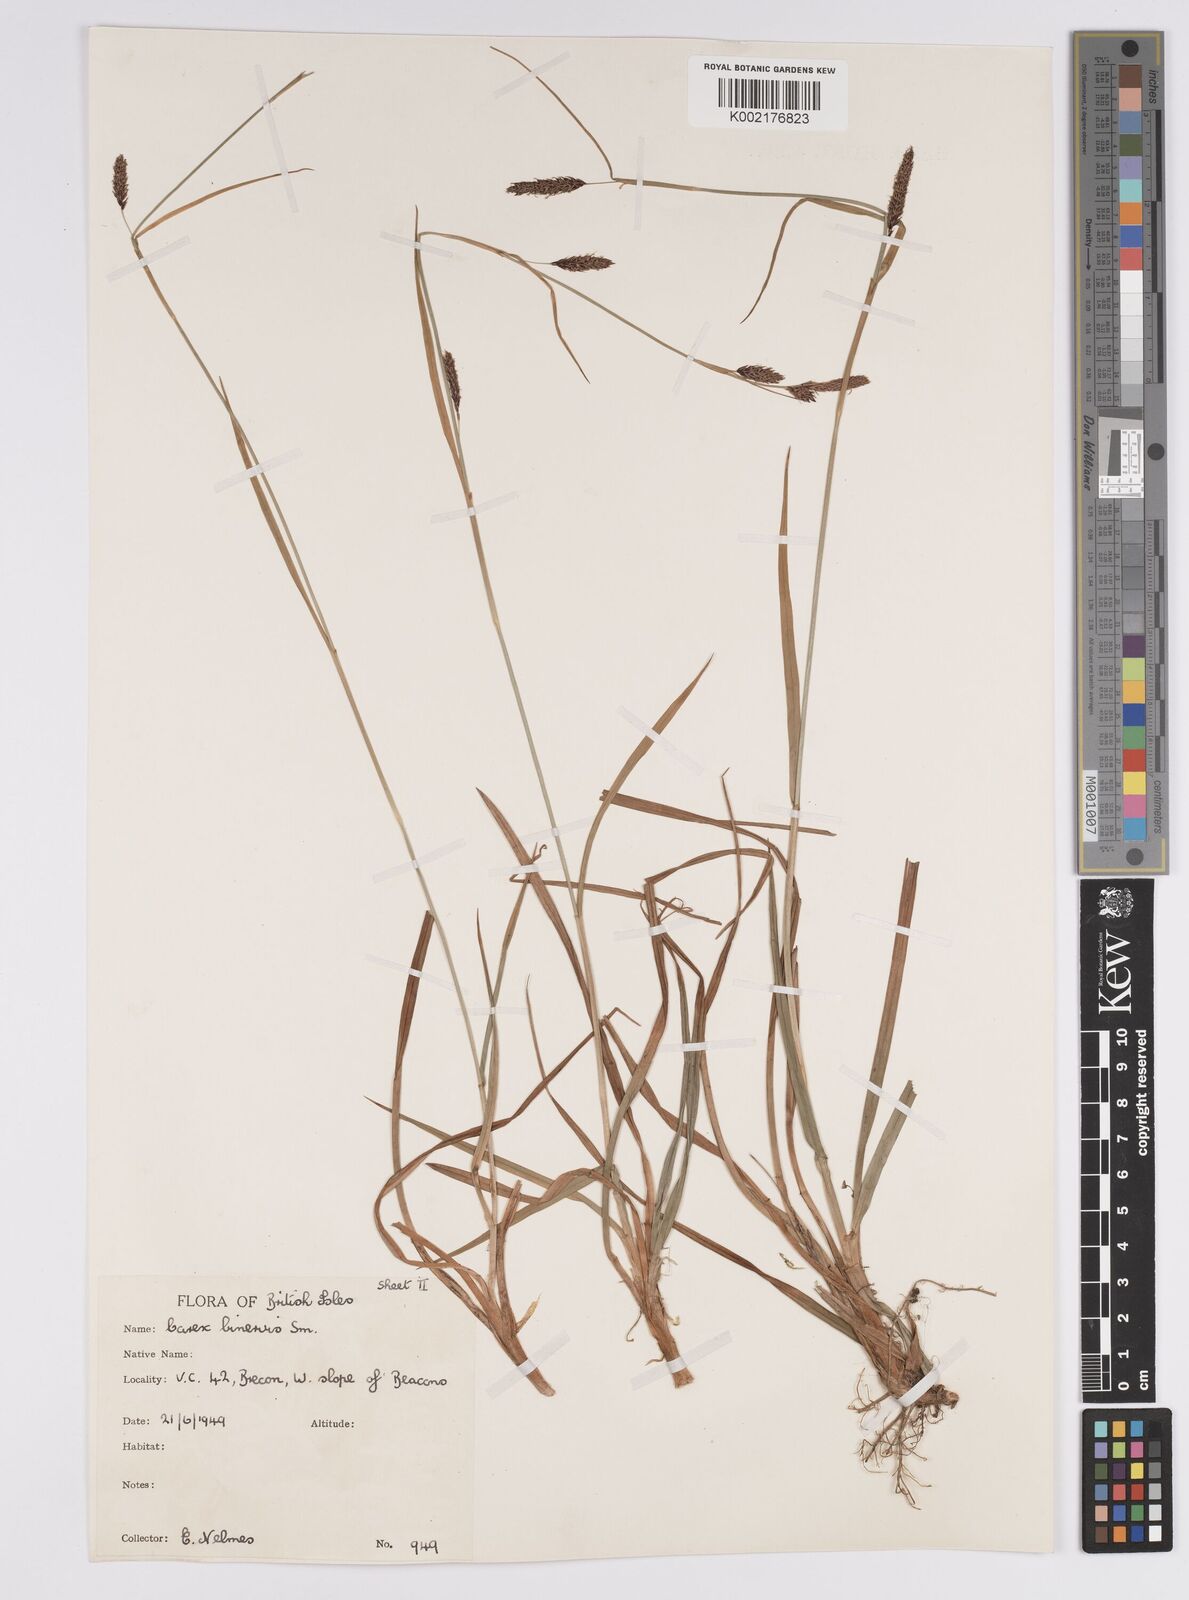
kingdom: Plantae
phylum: Tracheophyta
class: Liliopsida
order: Poales
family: Cyperaceae
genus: Carex
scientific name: Carex binervis
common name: Green-ribbed sedge
